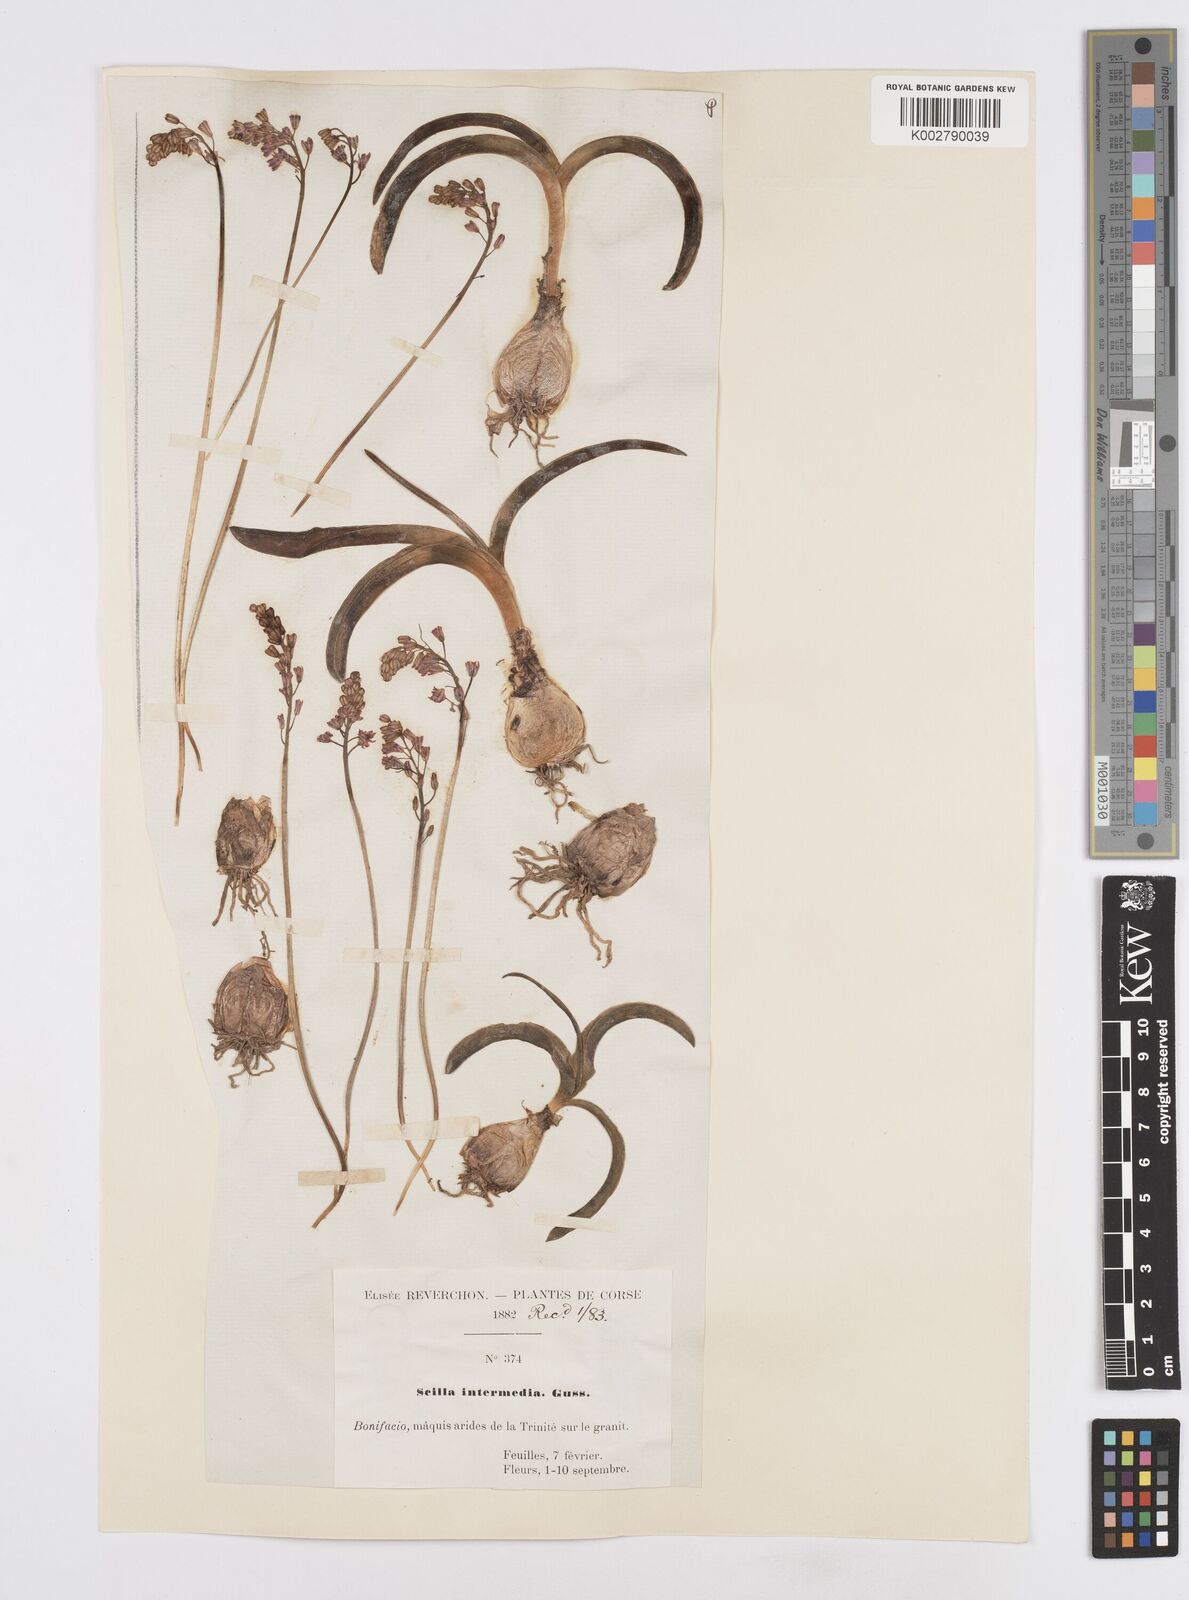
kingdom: Plantae
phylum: Tracheophyta
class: Liliopsida
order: Asparagales
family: Asparagaceae
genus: Prospero
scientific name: Prospero obtusifolium
